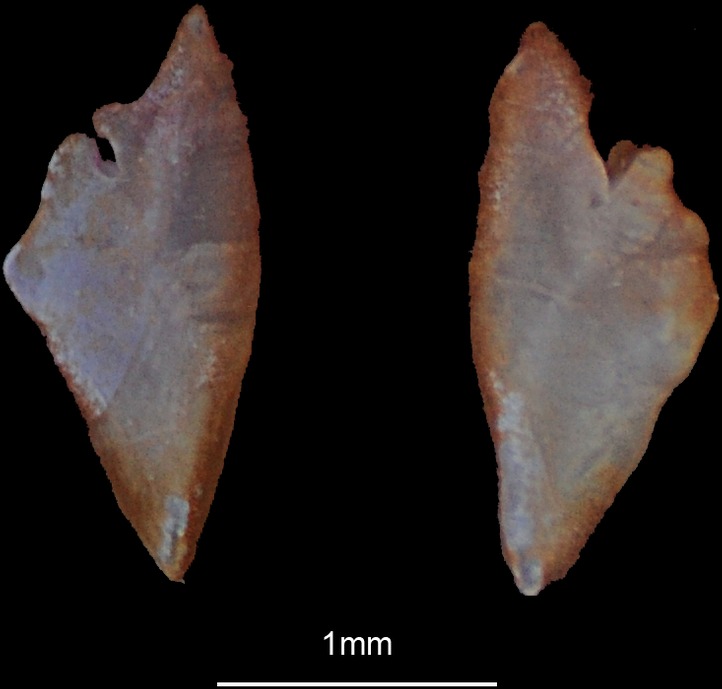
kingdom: Animalia
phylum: Chordata
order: Perciformes
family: Callionymidae
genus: Synchiropus
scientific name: Synchiropus picturatus
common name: Green spot mandarin
